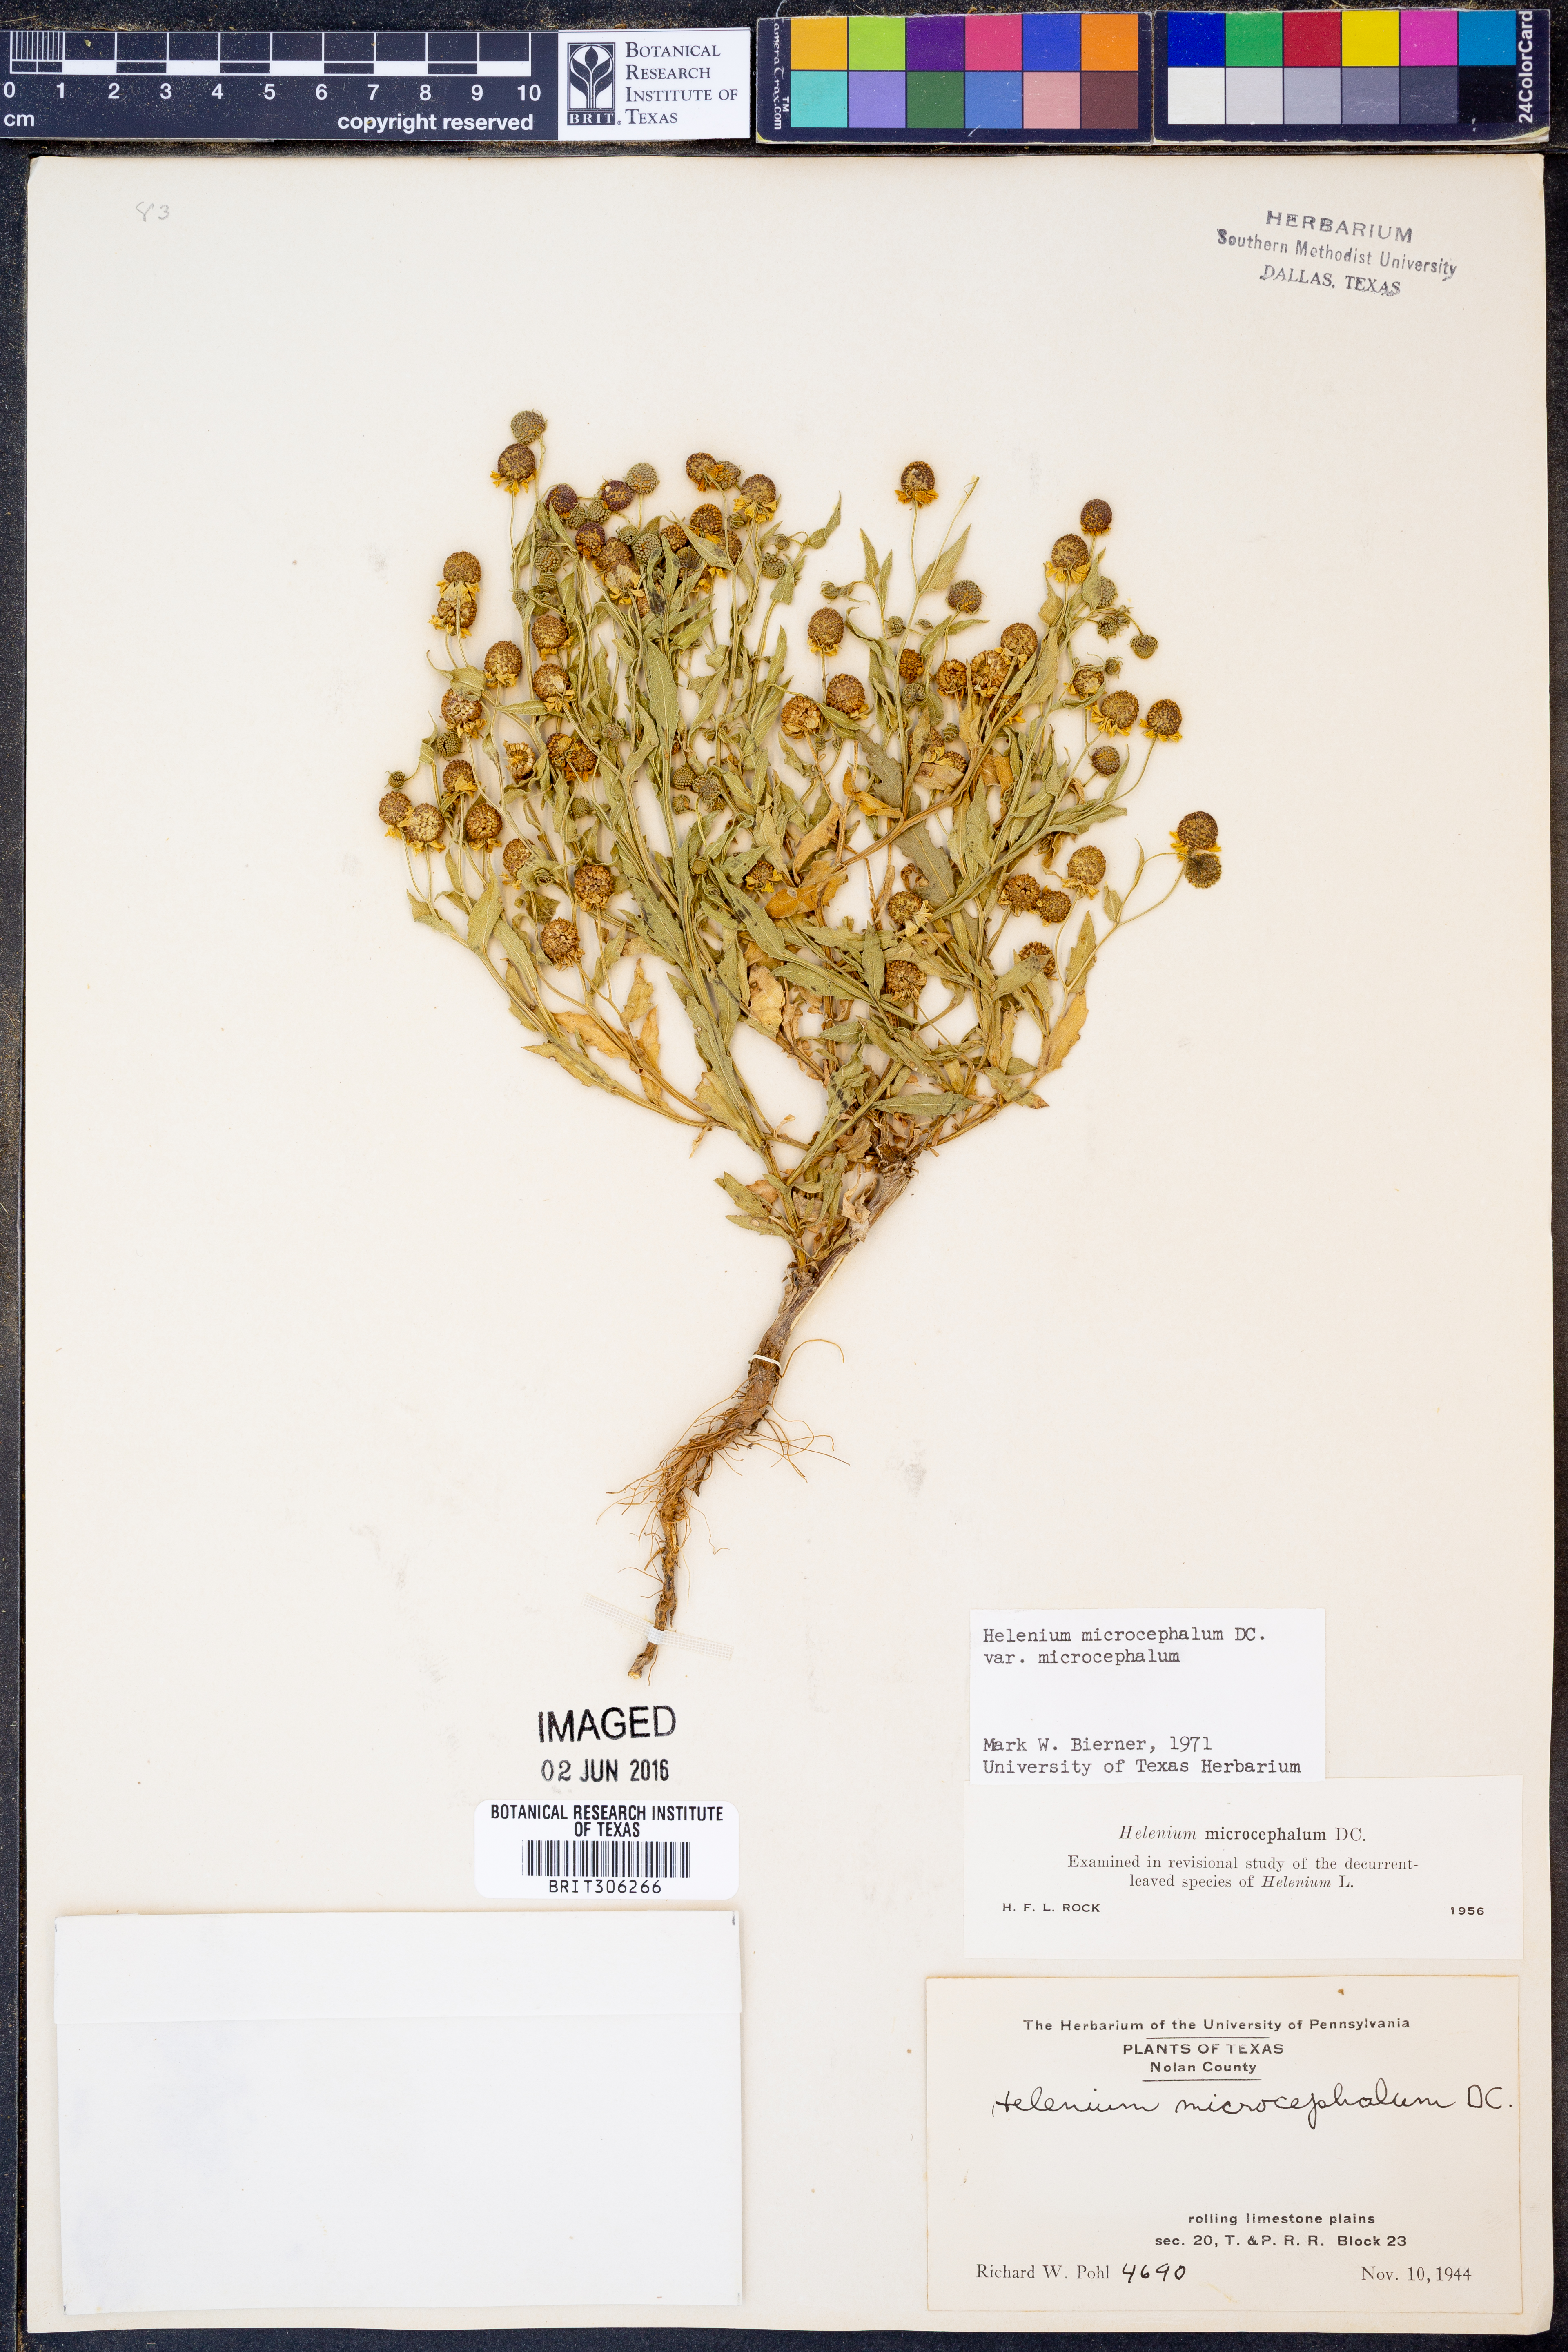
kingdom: Plantae
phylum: Tracheophyta
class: Magnoliopsida
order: Asterales
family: Asteraceae
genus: Helenium
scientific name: Helenium microcephalum
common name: Smallhead sneezeweed
